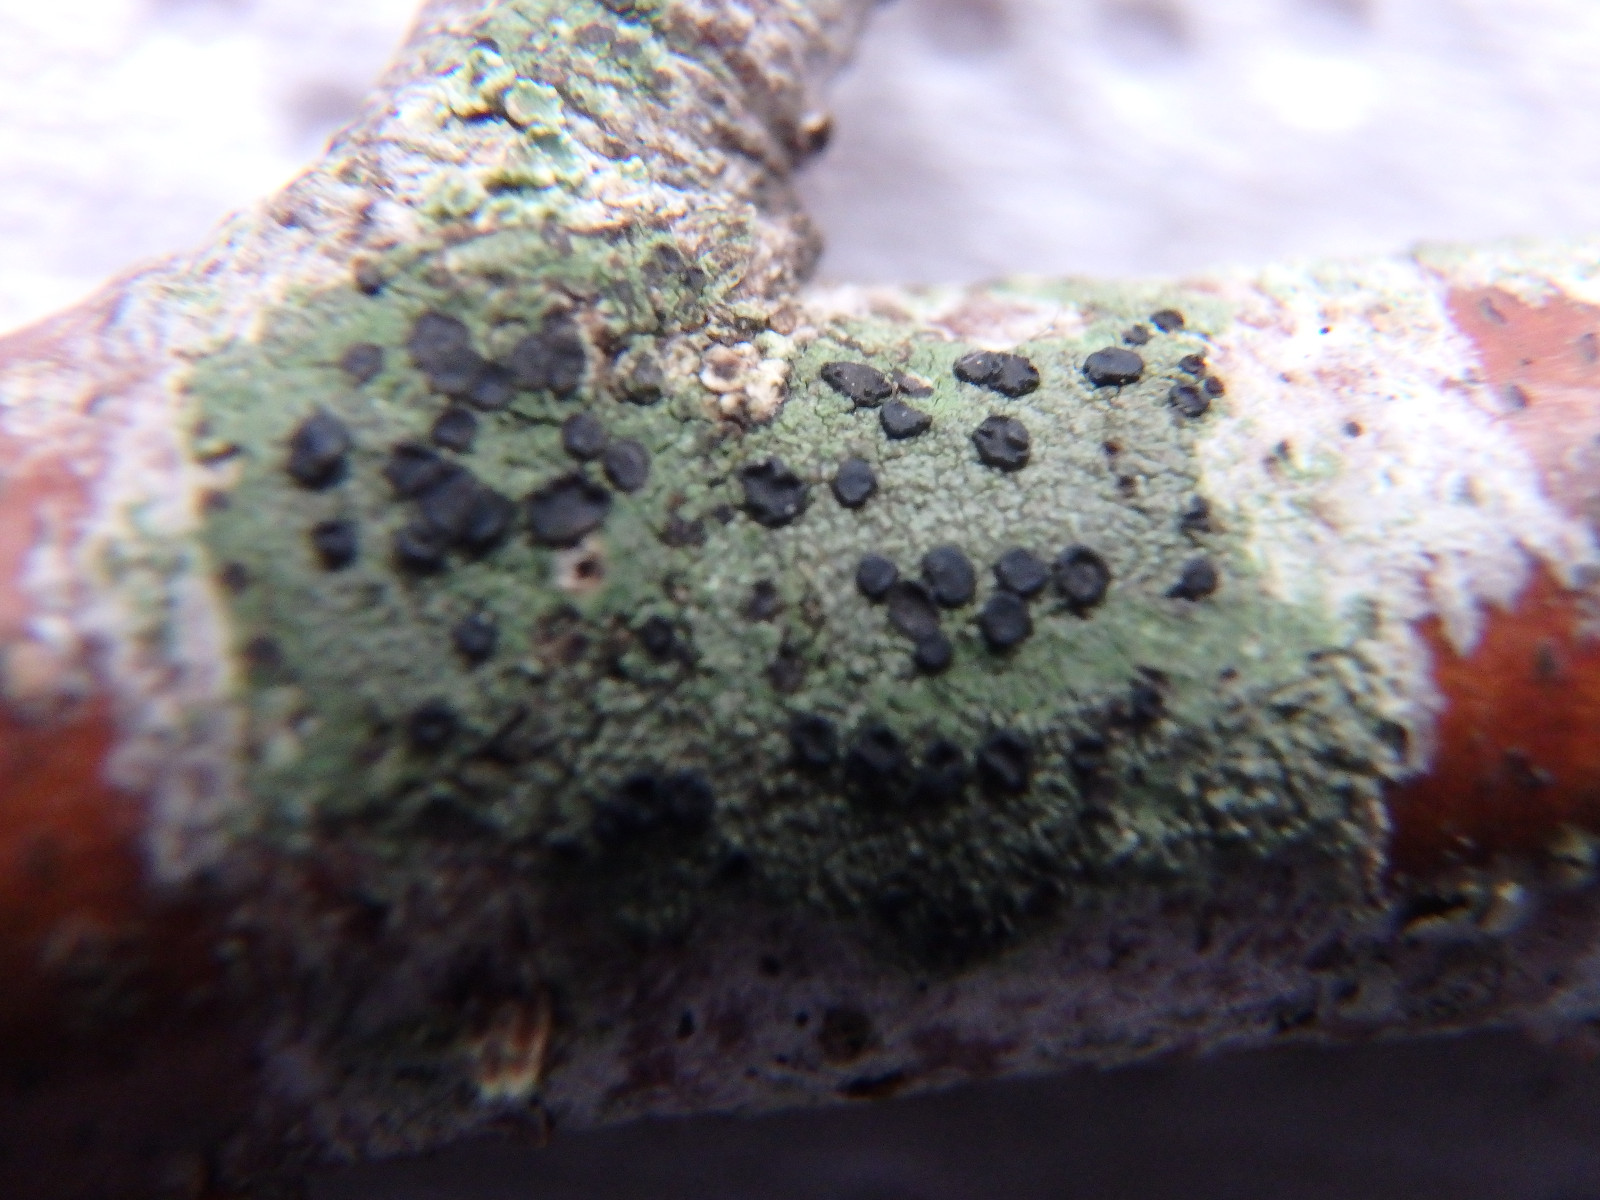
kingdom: Fungi
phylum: Ascomycota
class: Lecanoromycetes
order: Lecanorales
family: Lecanoraceae
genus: Lecidella
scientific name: Lecidella elaeochroma
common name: grågrøn skivelav
